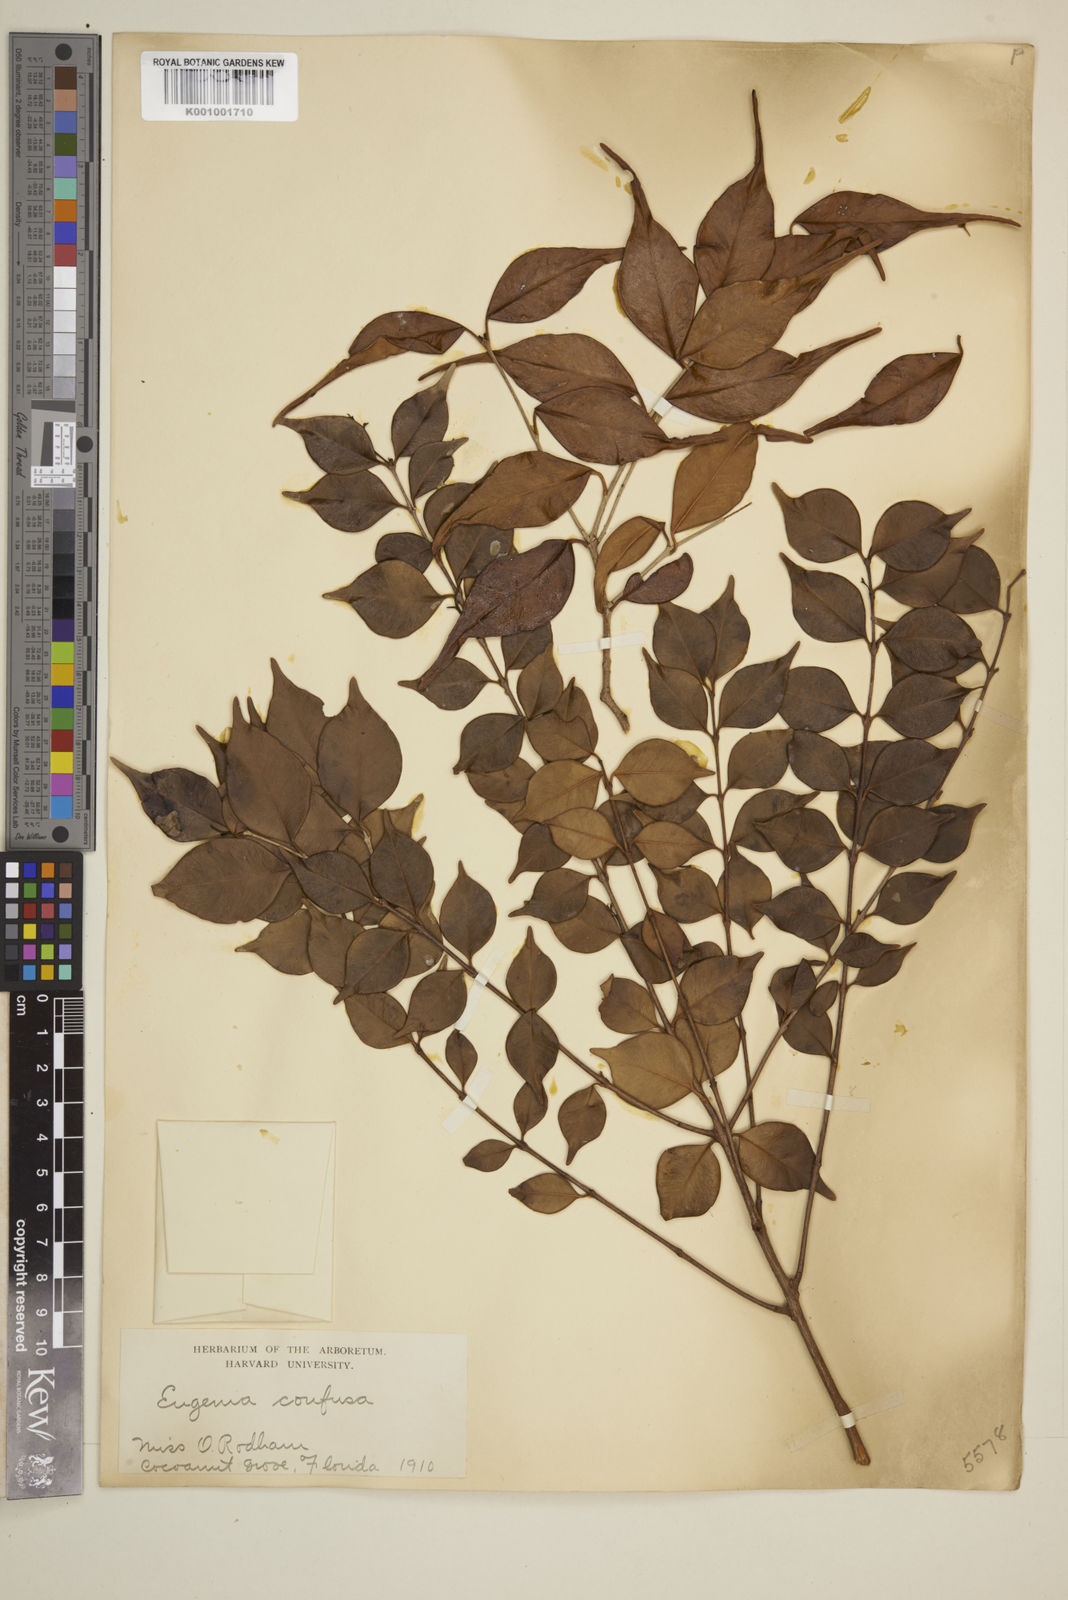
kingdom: Plantae
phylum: Tracheophyta
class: Magnoliopsida
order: Myrtales
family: Myrtaceae
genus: Eugenia
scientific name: Eugenia confusa
